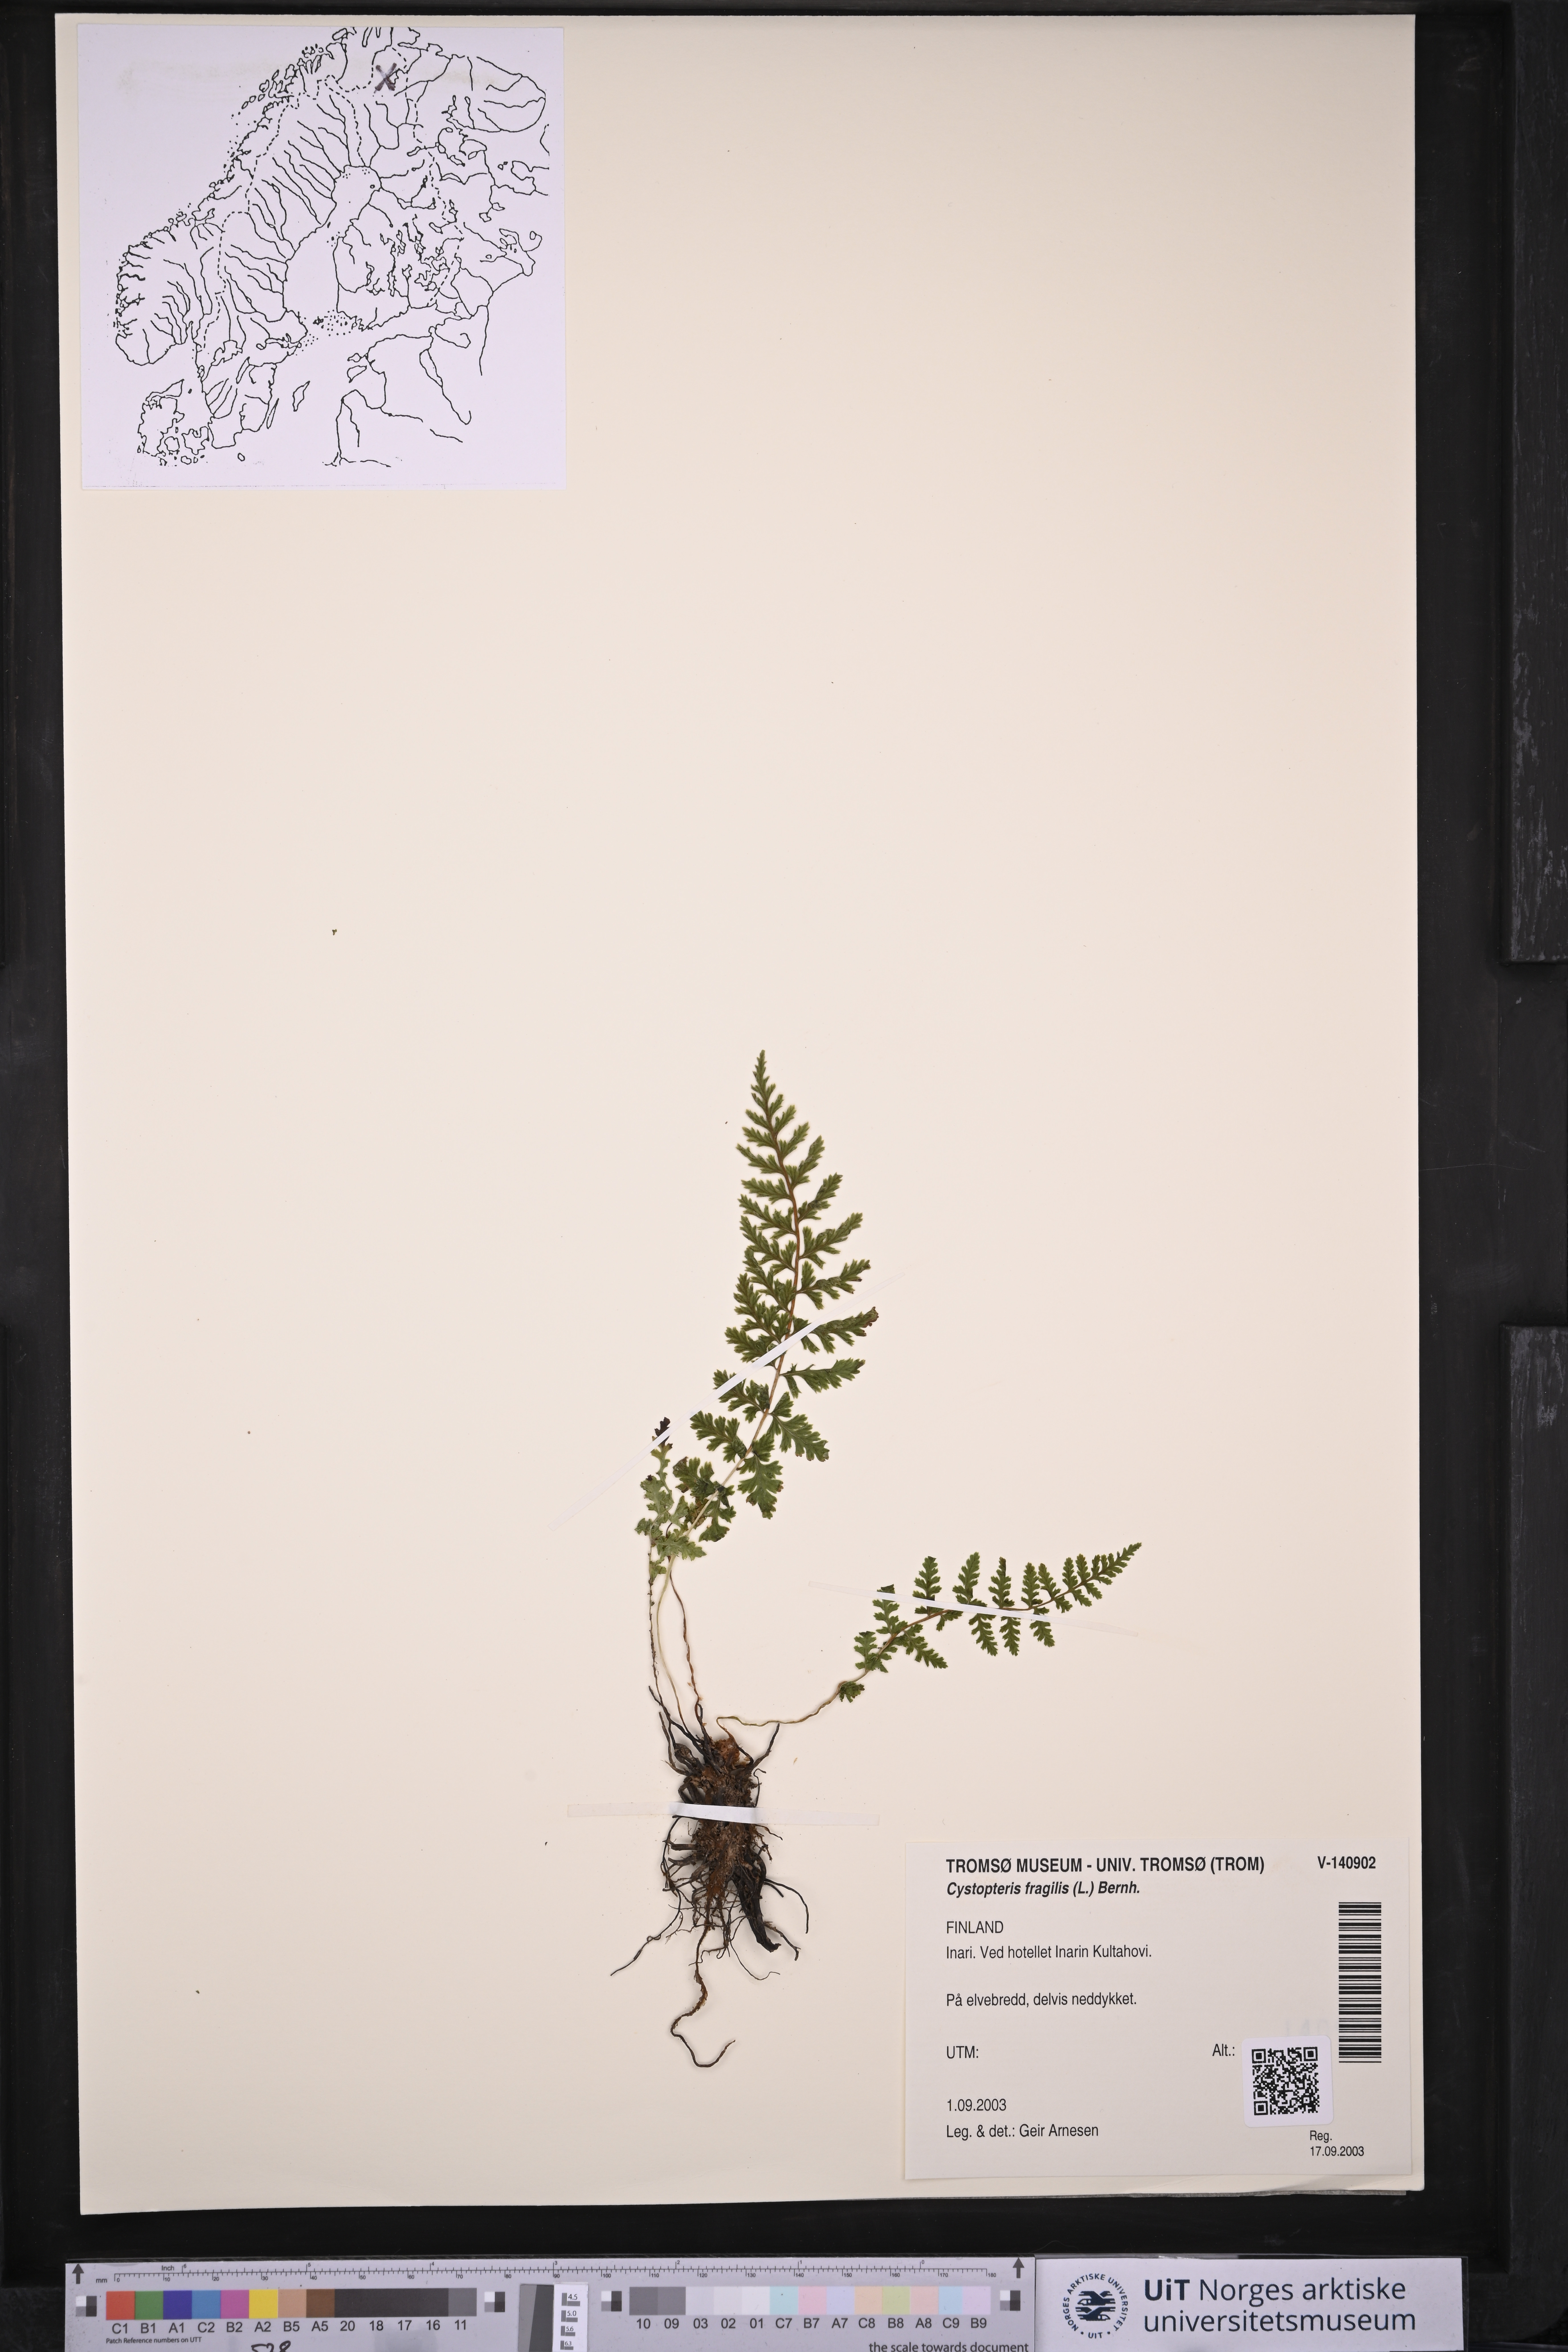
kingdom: Plantae
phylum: Tracheophyta
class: Polypodiopsida
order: Polypodiales
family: Cystopteridaceae
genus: Cystopteris
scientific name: Cystopteris fragilis
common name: Brittle bladder fern
